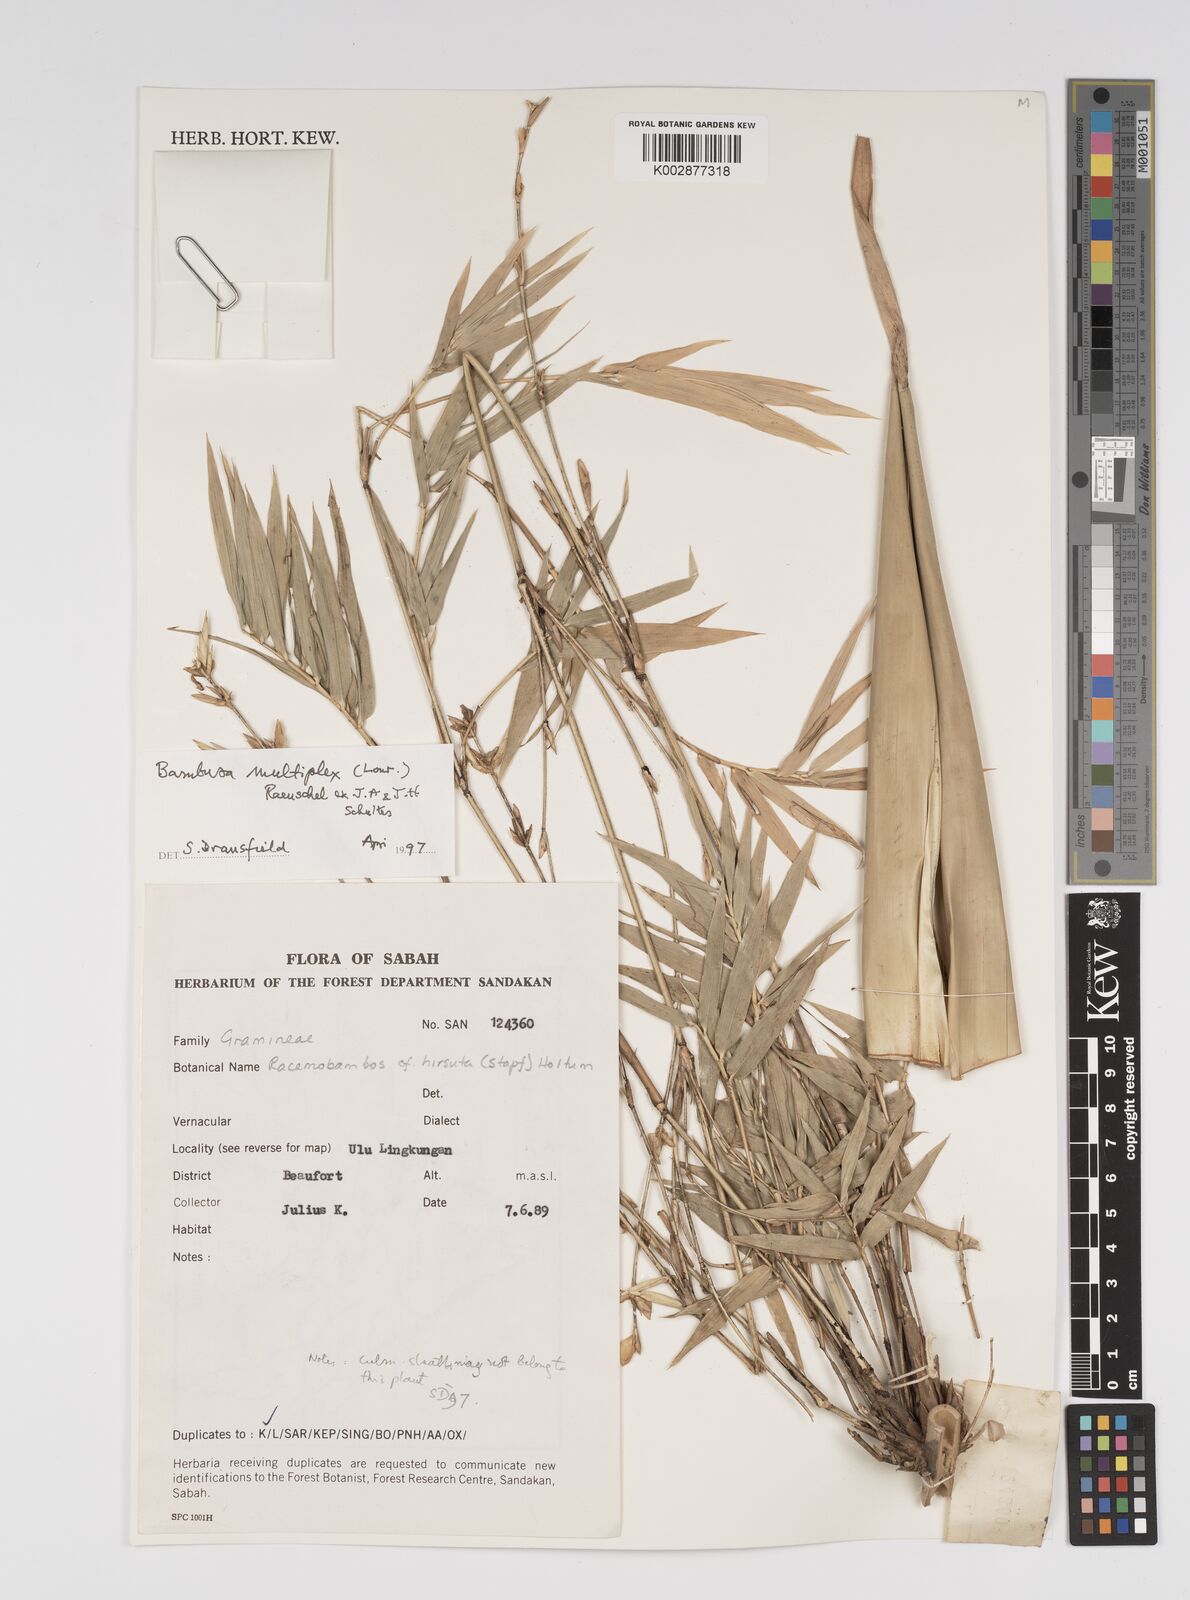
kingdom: Plantae
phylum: Tracheophyta
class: Liliopsida
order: Poales
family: Poaceae
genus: Bambusa
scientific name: Bambusa multiplex
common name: Hedge bamboo
